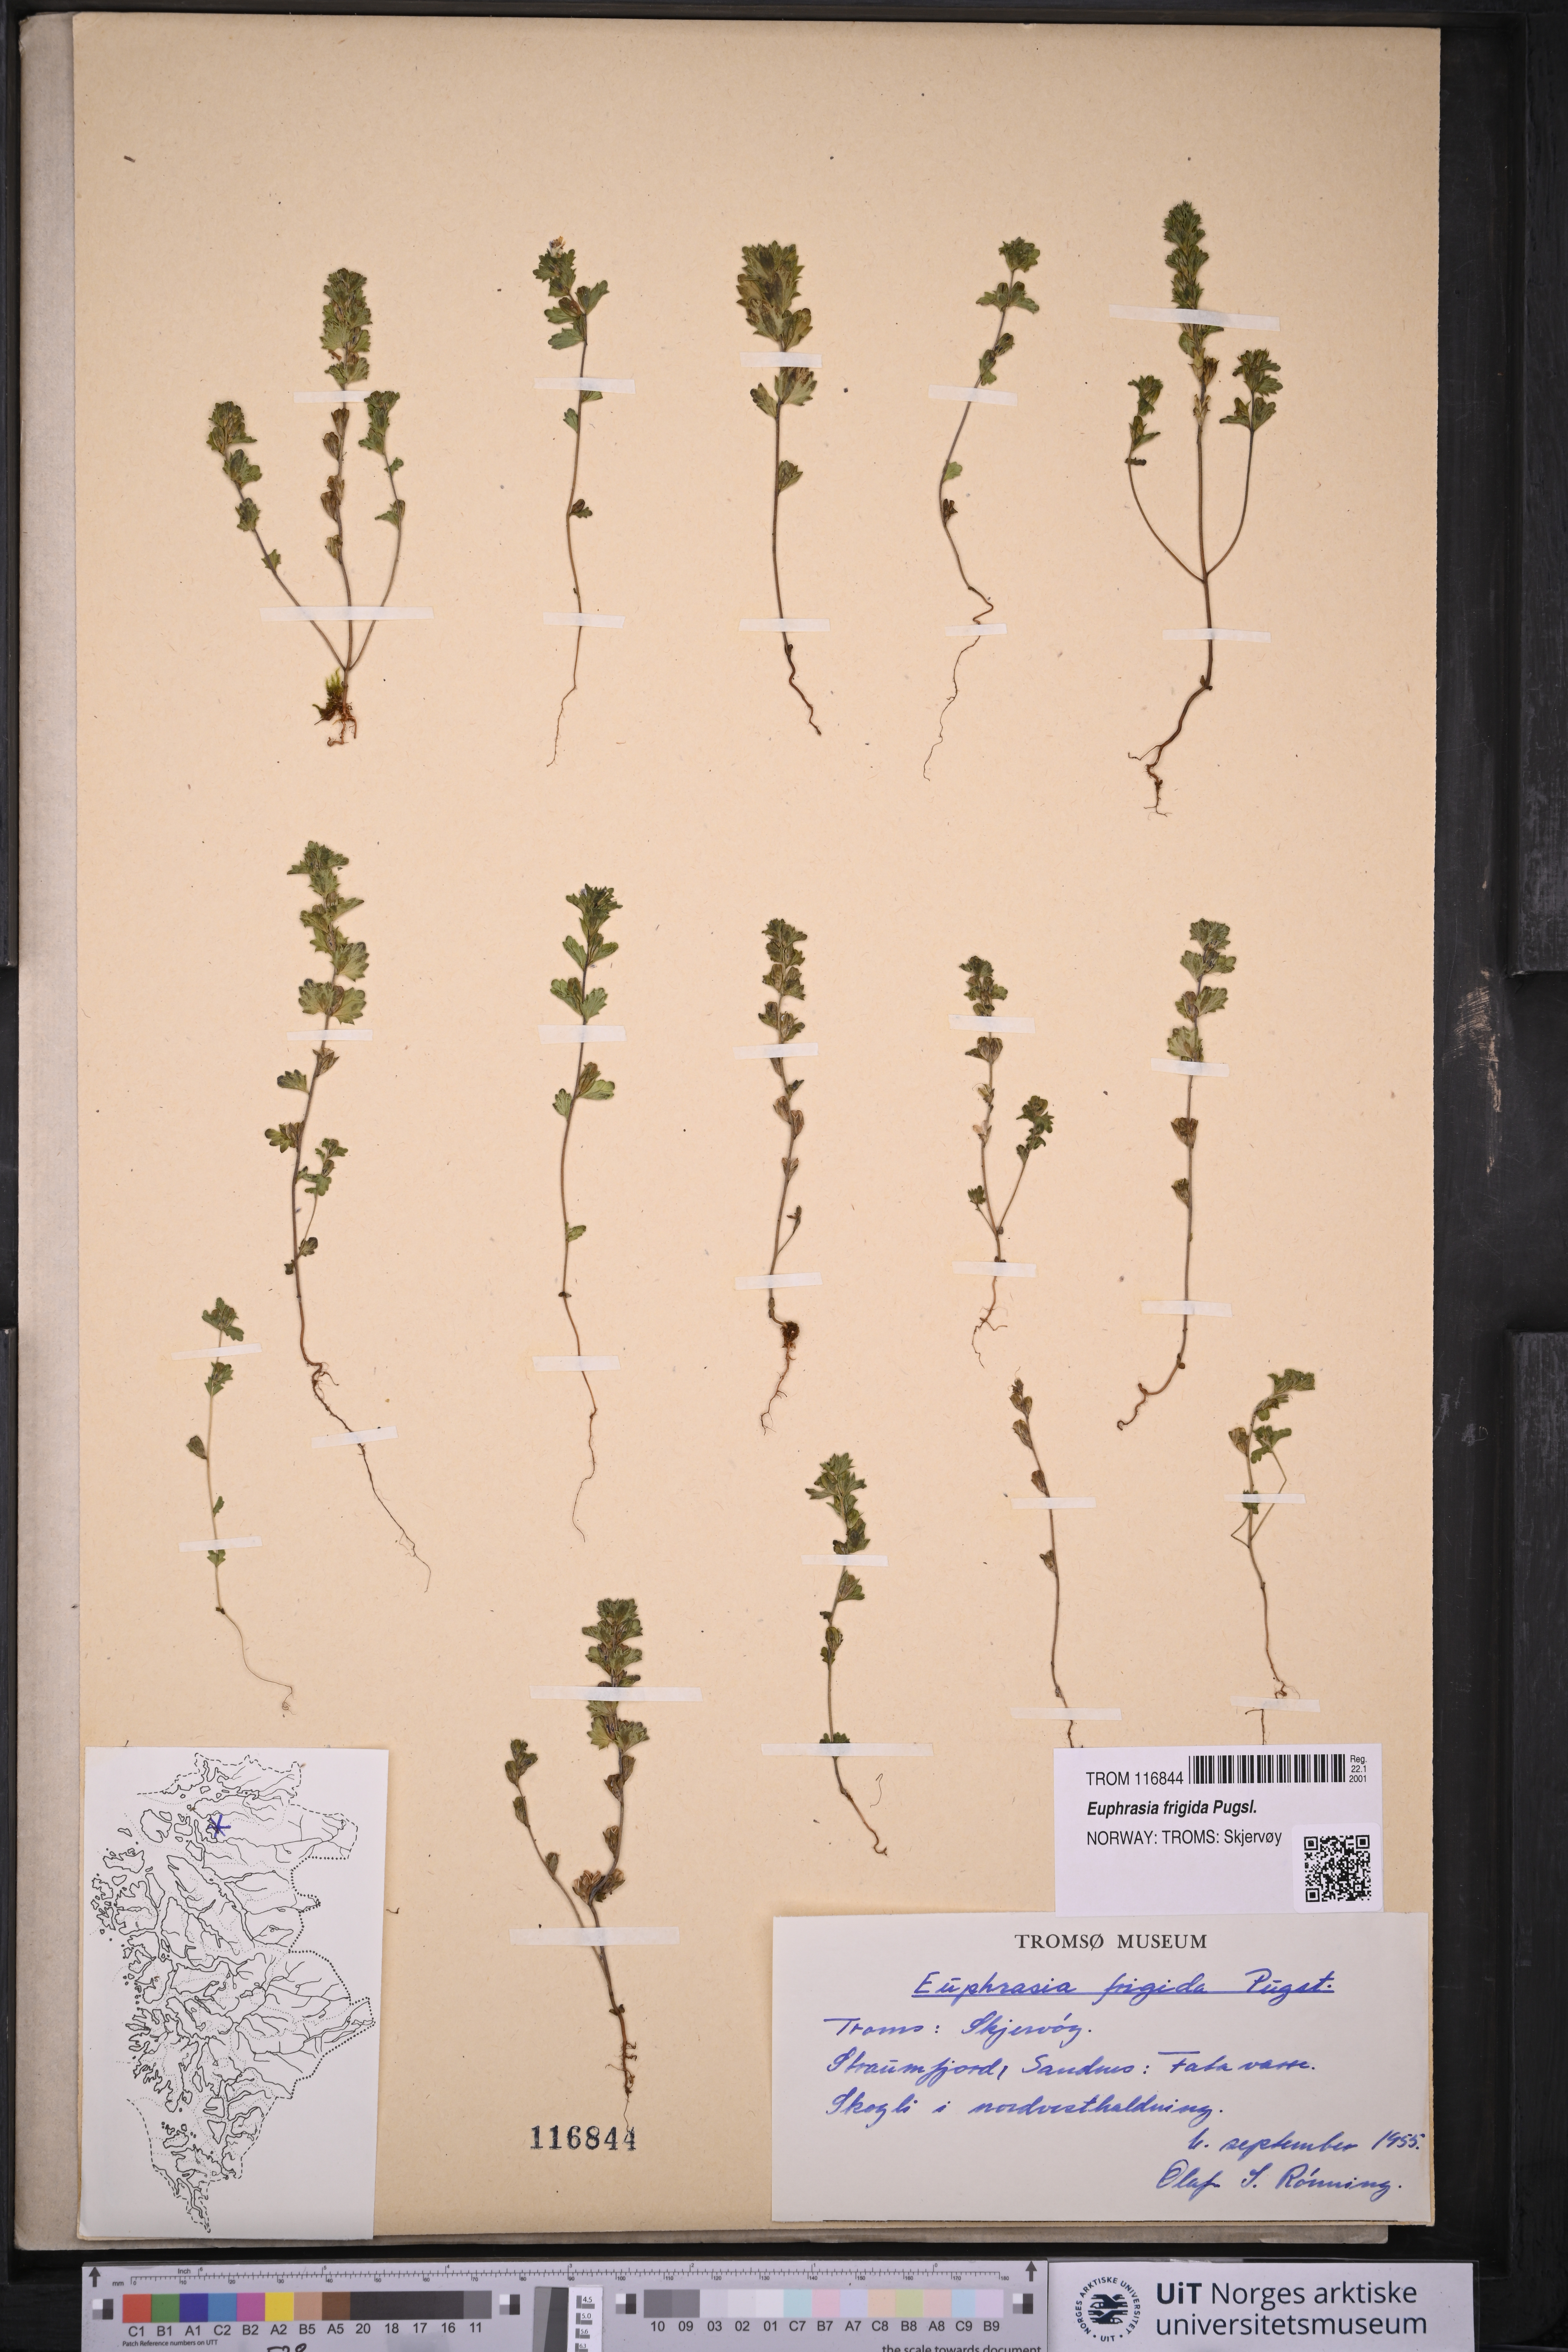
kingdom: Plantae
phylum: Tracheophyta
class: Magnoliopsida
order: Lamiales
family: Orobanchaceae
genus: Euphrasia
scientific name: Euphrasia frigida
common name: An eyebright
